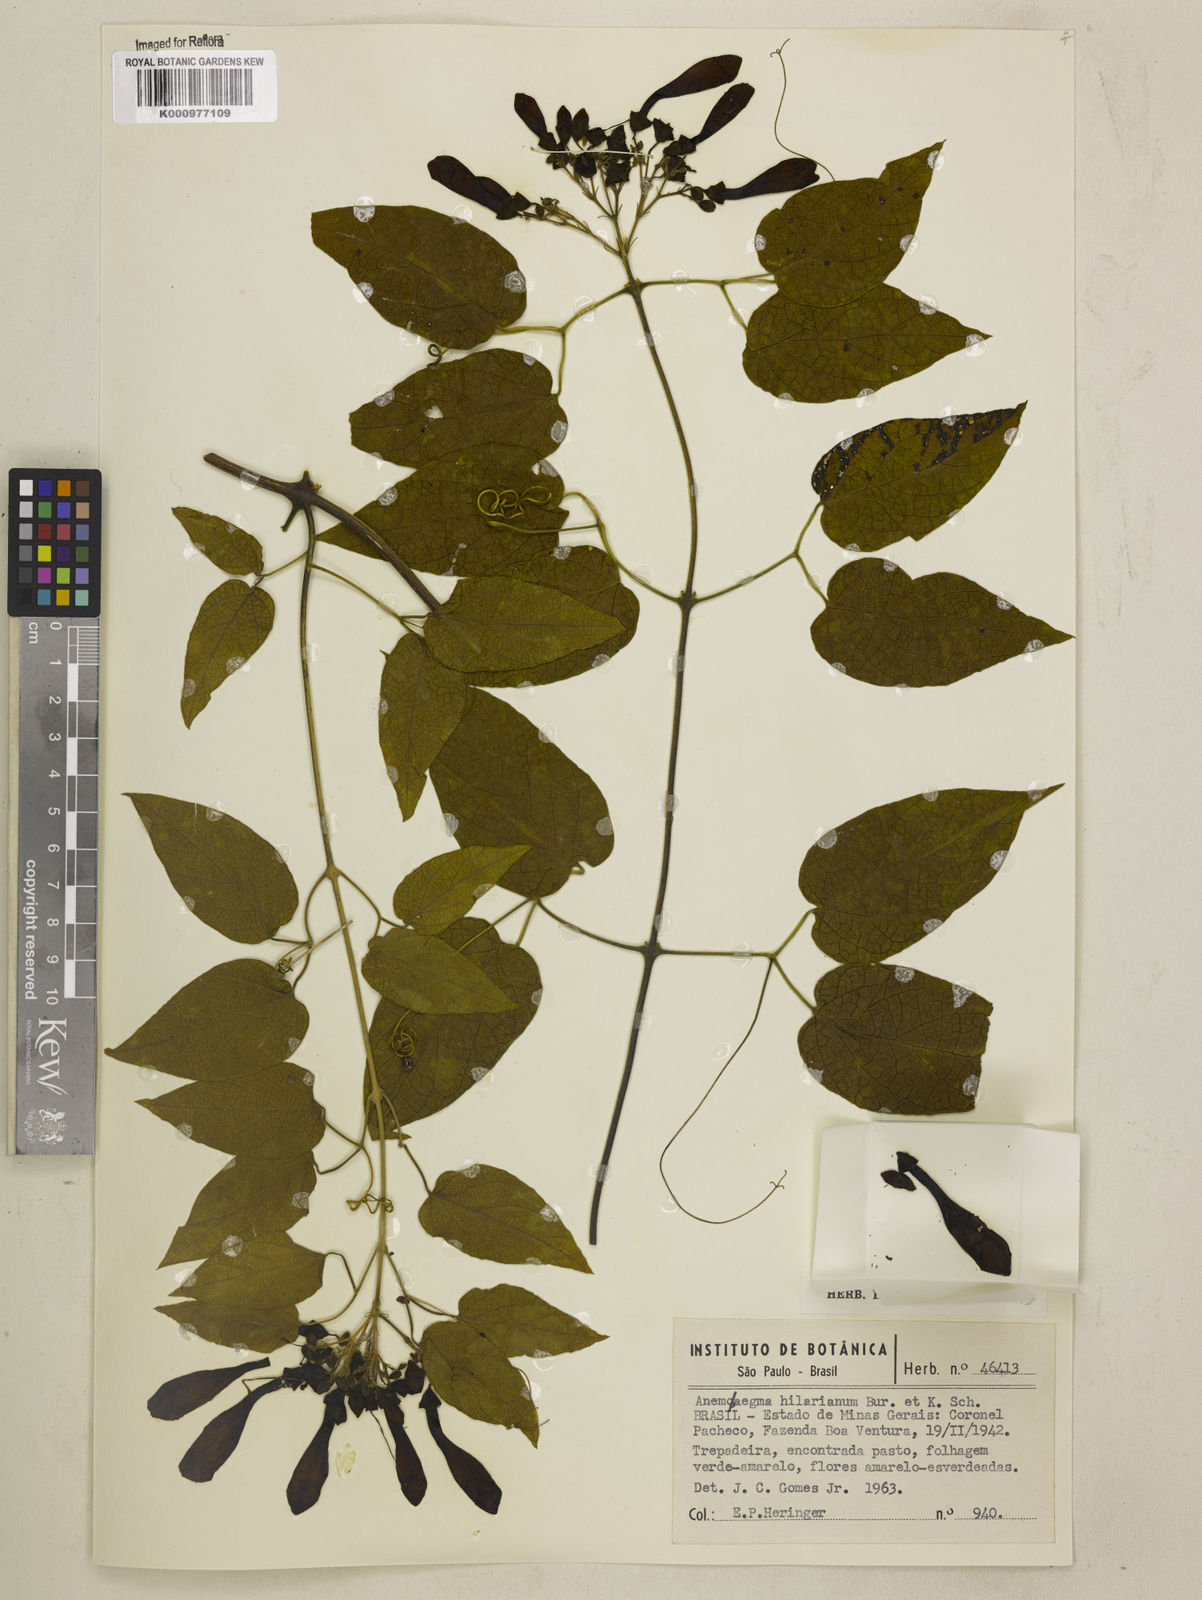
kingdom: Plantae
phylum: Tracheophyta
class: Magnoliopsida
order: Lamiales
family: Bignoniaceae
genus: Anemopaegma
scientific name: Anemopaegma hilarianum
